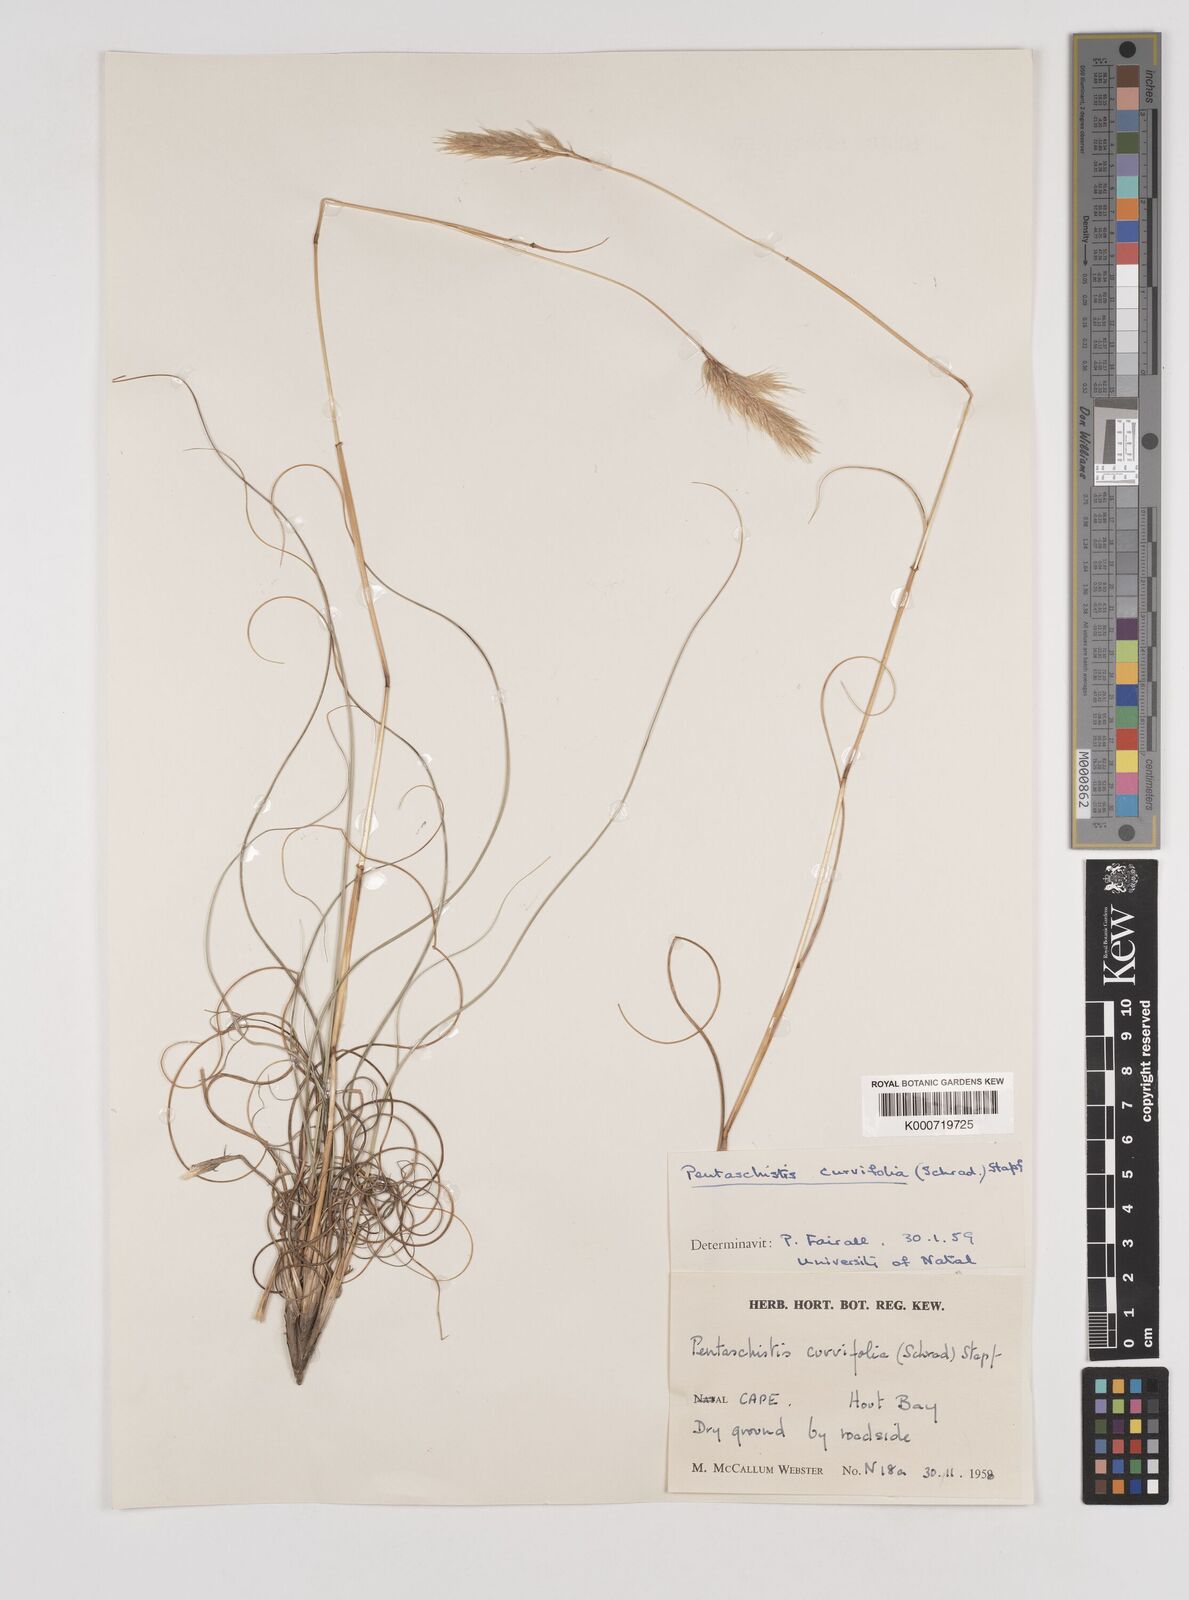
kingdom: Plantae
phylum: Tracheophyta
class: Liliopsida
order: Poales
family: Poaceae
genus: Pentameris
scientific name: Pentameris curvifolia
